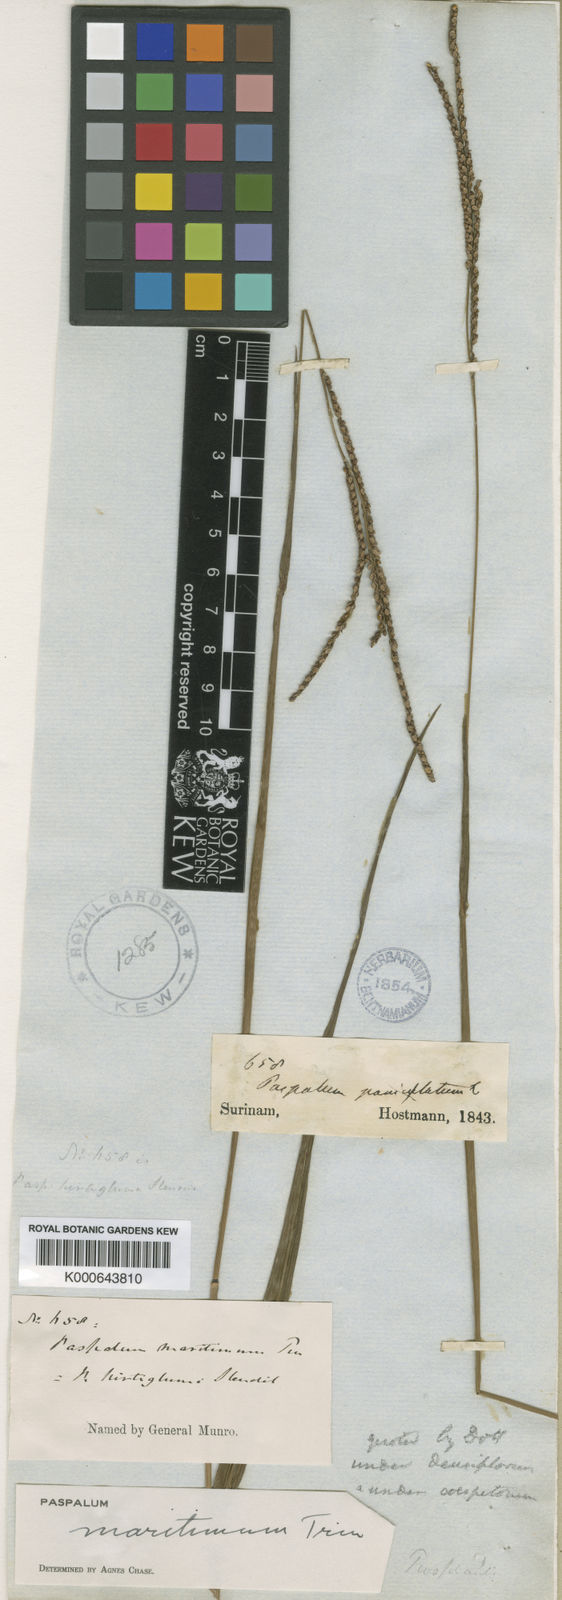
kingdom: Plantae
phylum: Tracheophyta
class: Liliopsida
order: Poales
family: Poaceae
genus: Paspalum
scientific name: Paspalum maritimum
